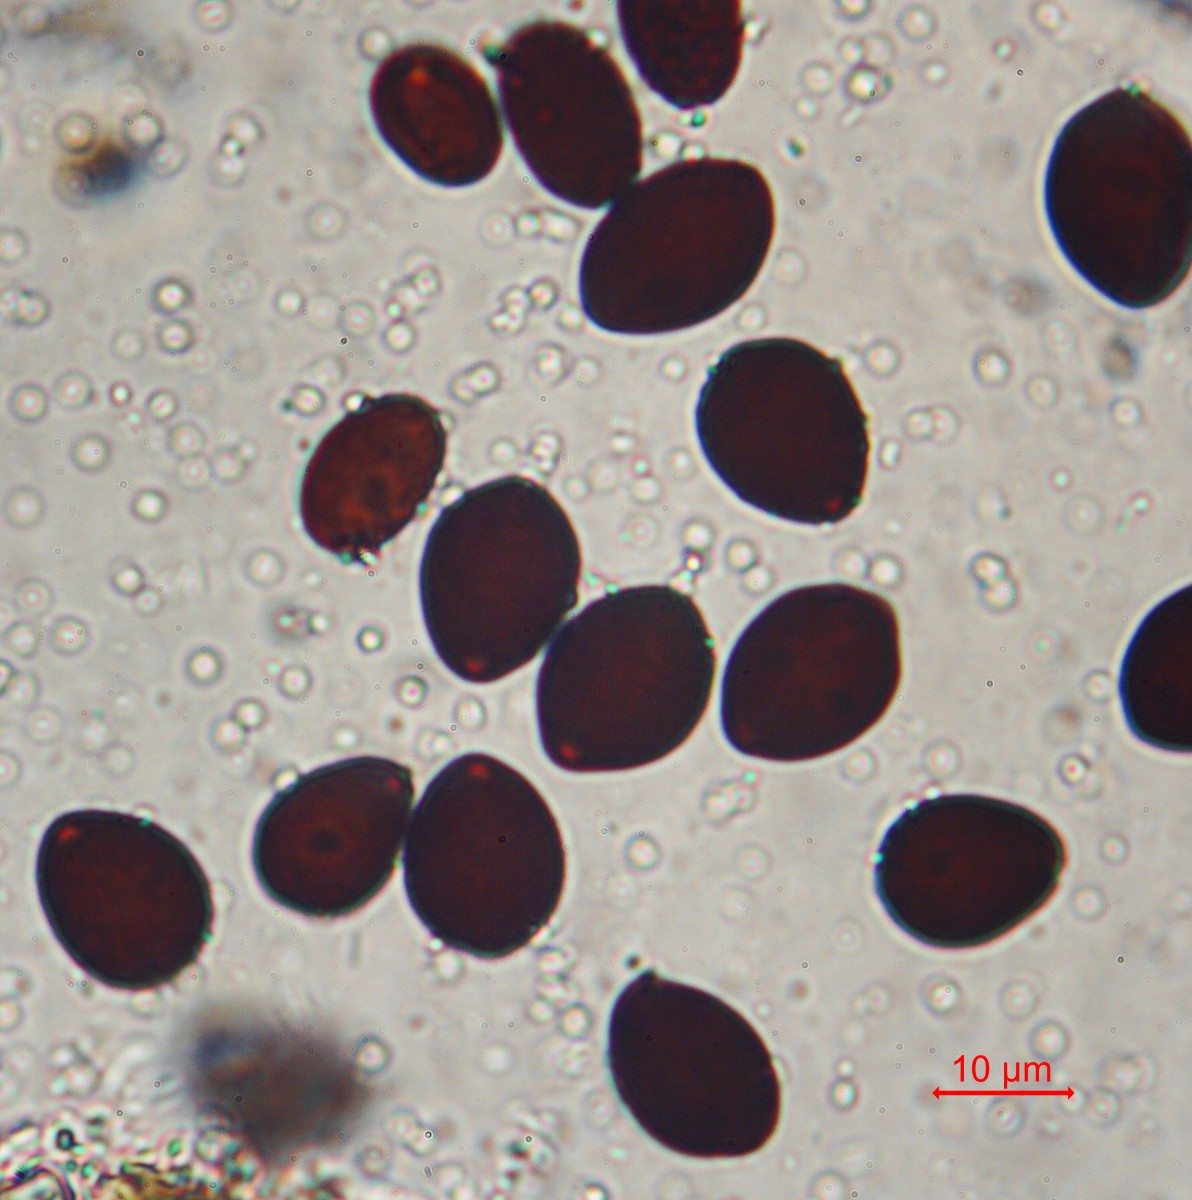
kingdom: Fungi
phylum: Basidiomycota
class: Agaricomycetes
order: Agaricales
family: Psathyrellaceae
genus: Parasola
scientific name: Parasola megasperma
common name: storsporet hjulhat
